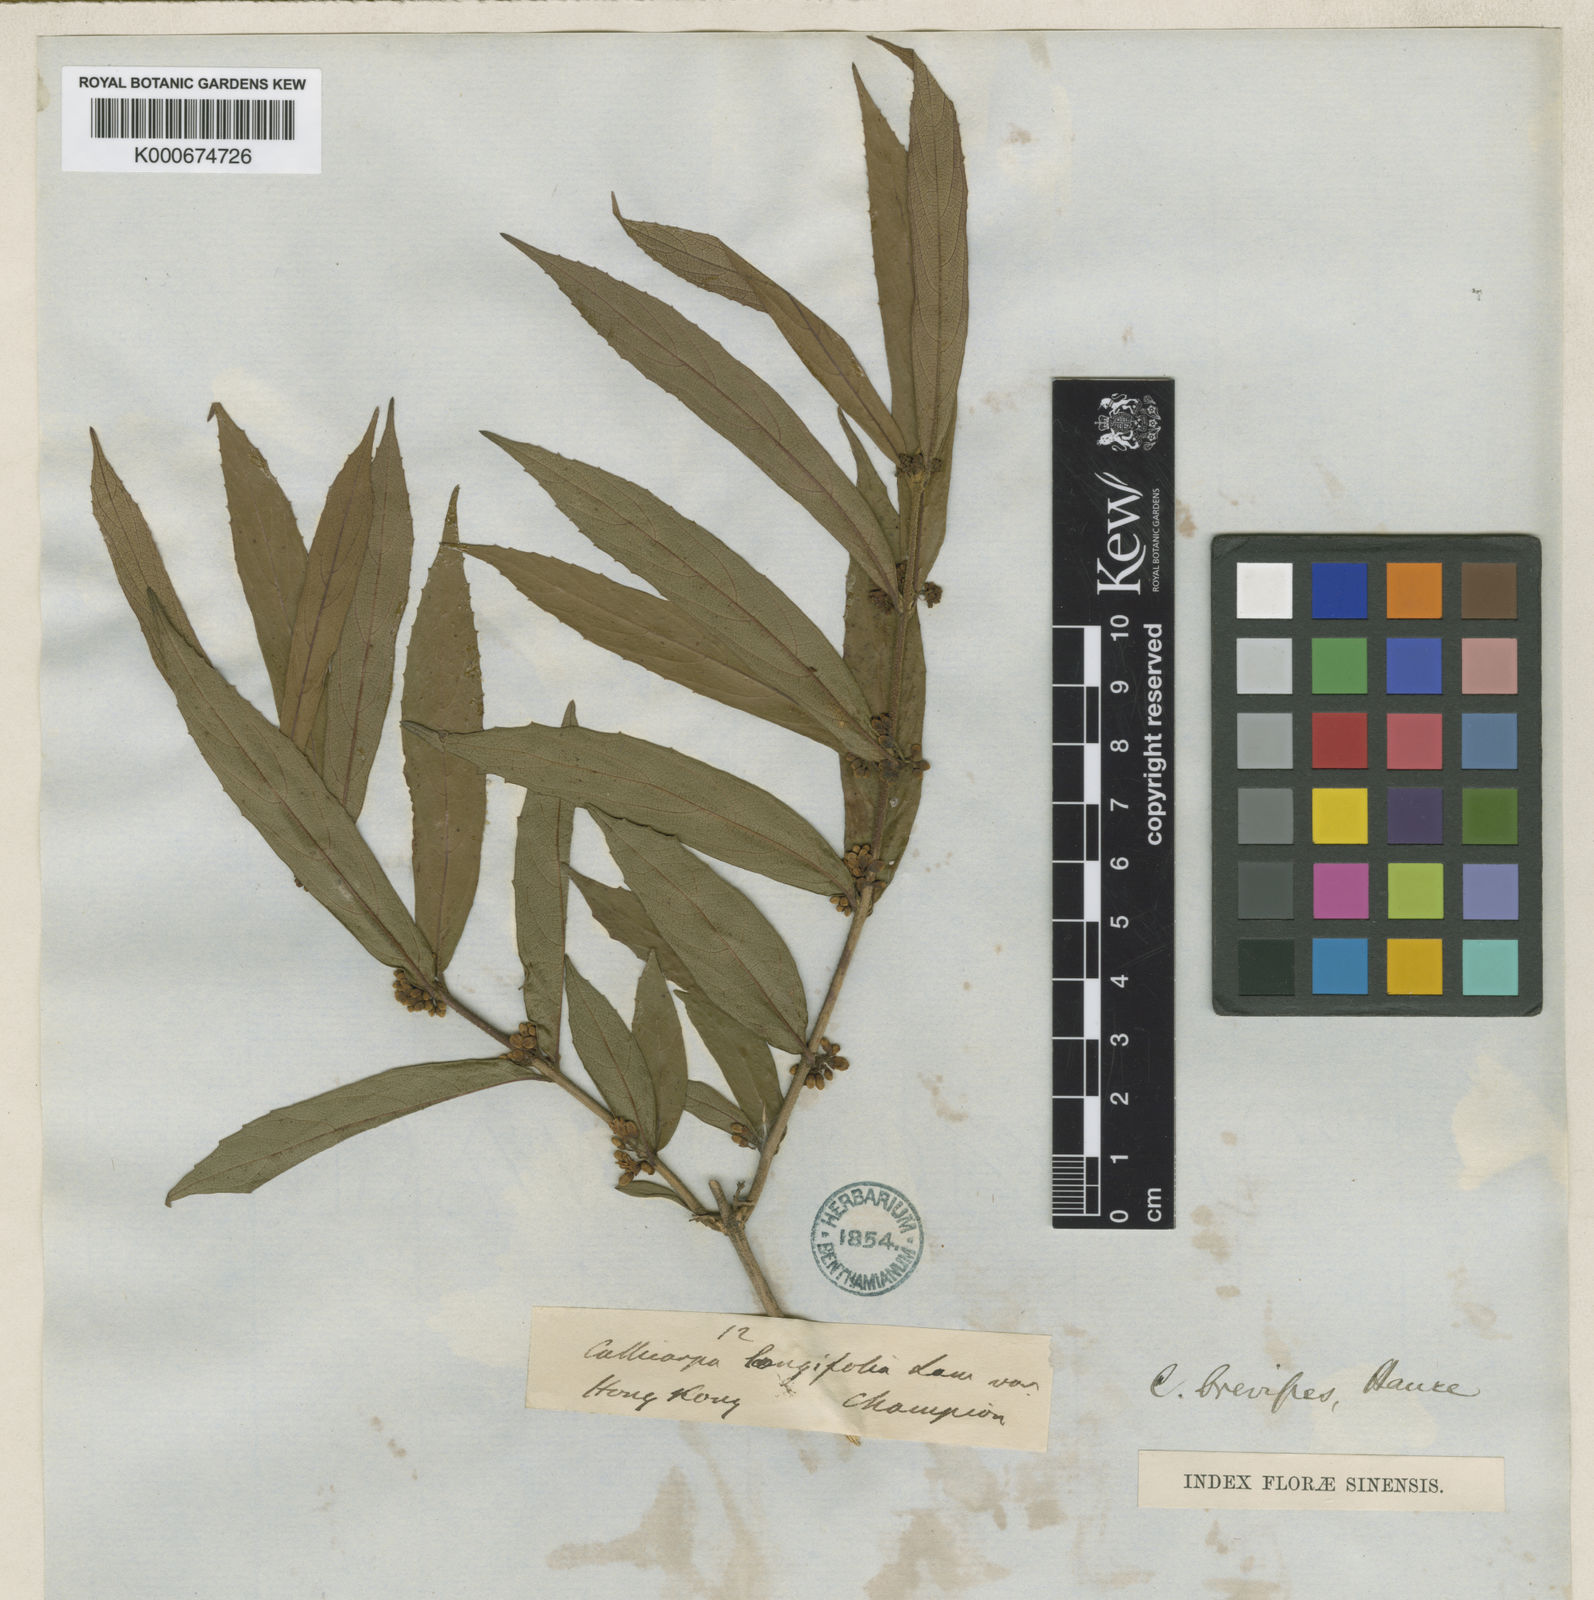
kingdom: Plantae
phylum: Tracheophyta
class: Magnoliopsida
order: Lamiales
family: Lamiaceae
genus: Callicarpa
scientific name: Callicarpa brevipes
